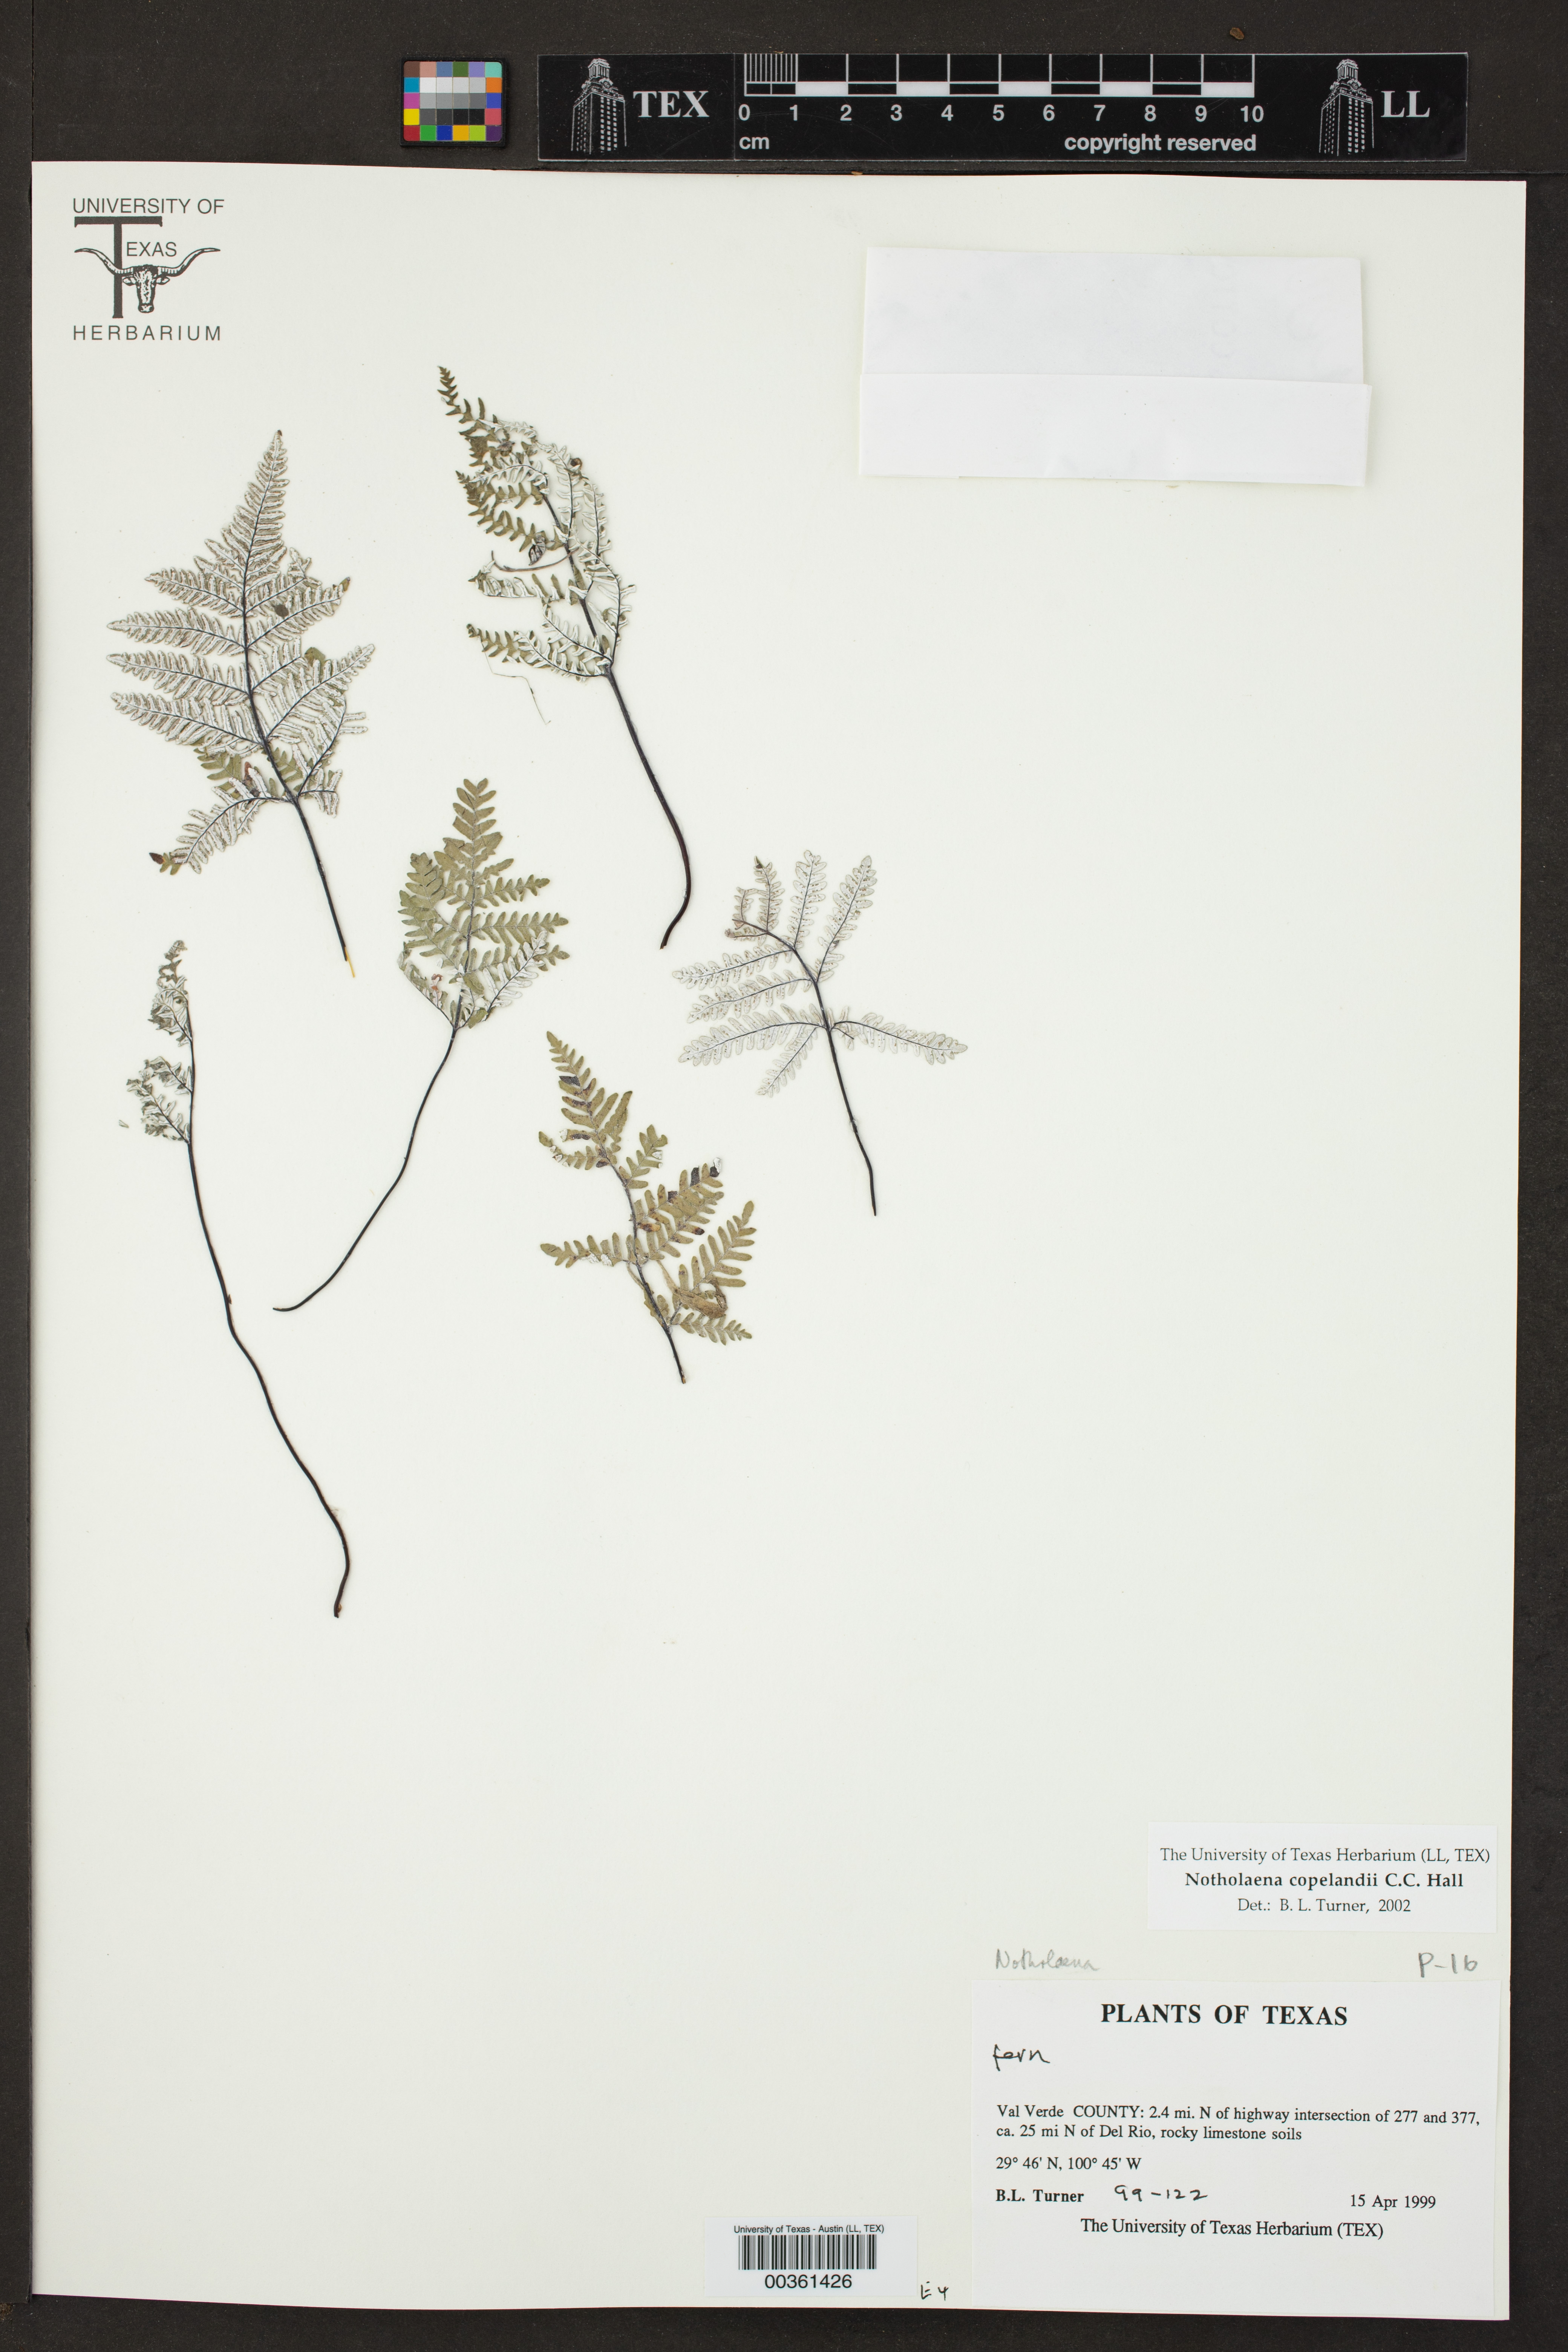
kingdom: Plantae
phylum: Tracheophyta
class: Polypodiopsida
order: Polypodiales
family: Pteridaceae
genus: Notholaena
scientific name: Notholaena candida
